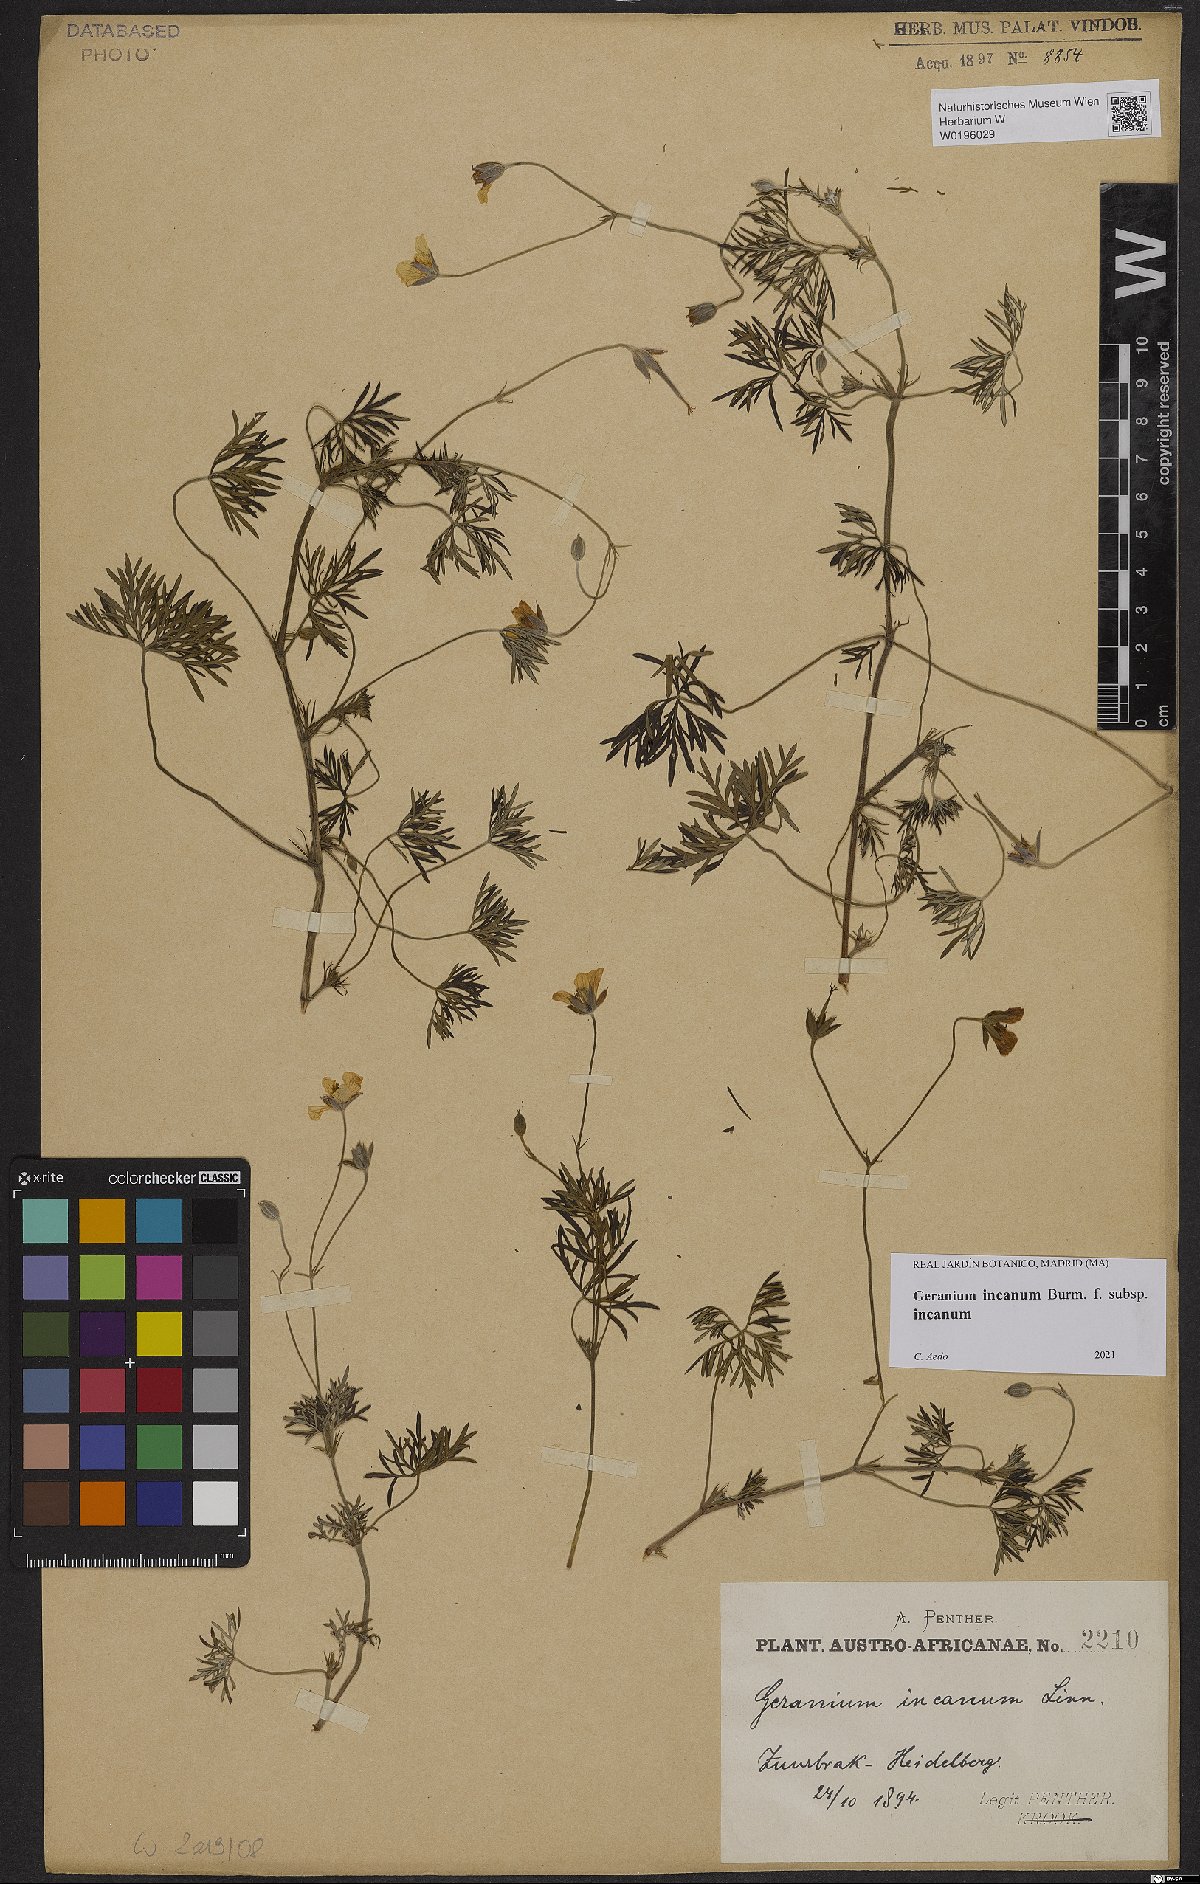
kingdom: Plantae
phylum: Tracheophyta
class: Magnoliopsida
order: Geraniales
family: Geraniaceae
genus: Geranium
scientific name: Geranium incanum
